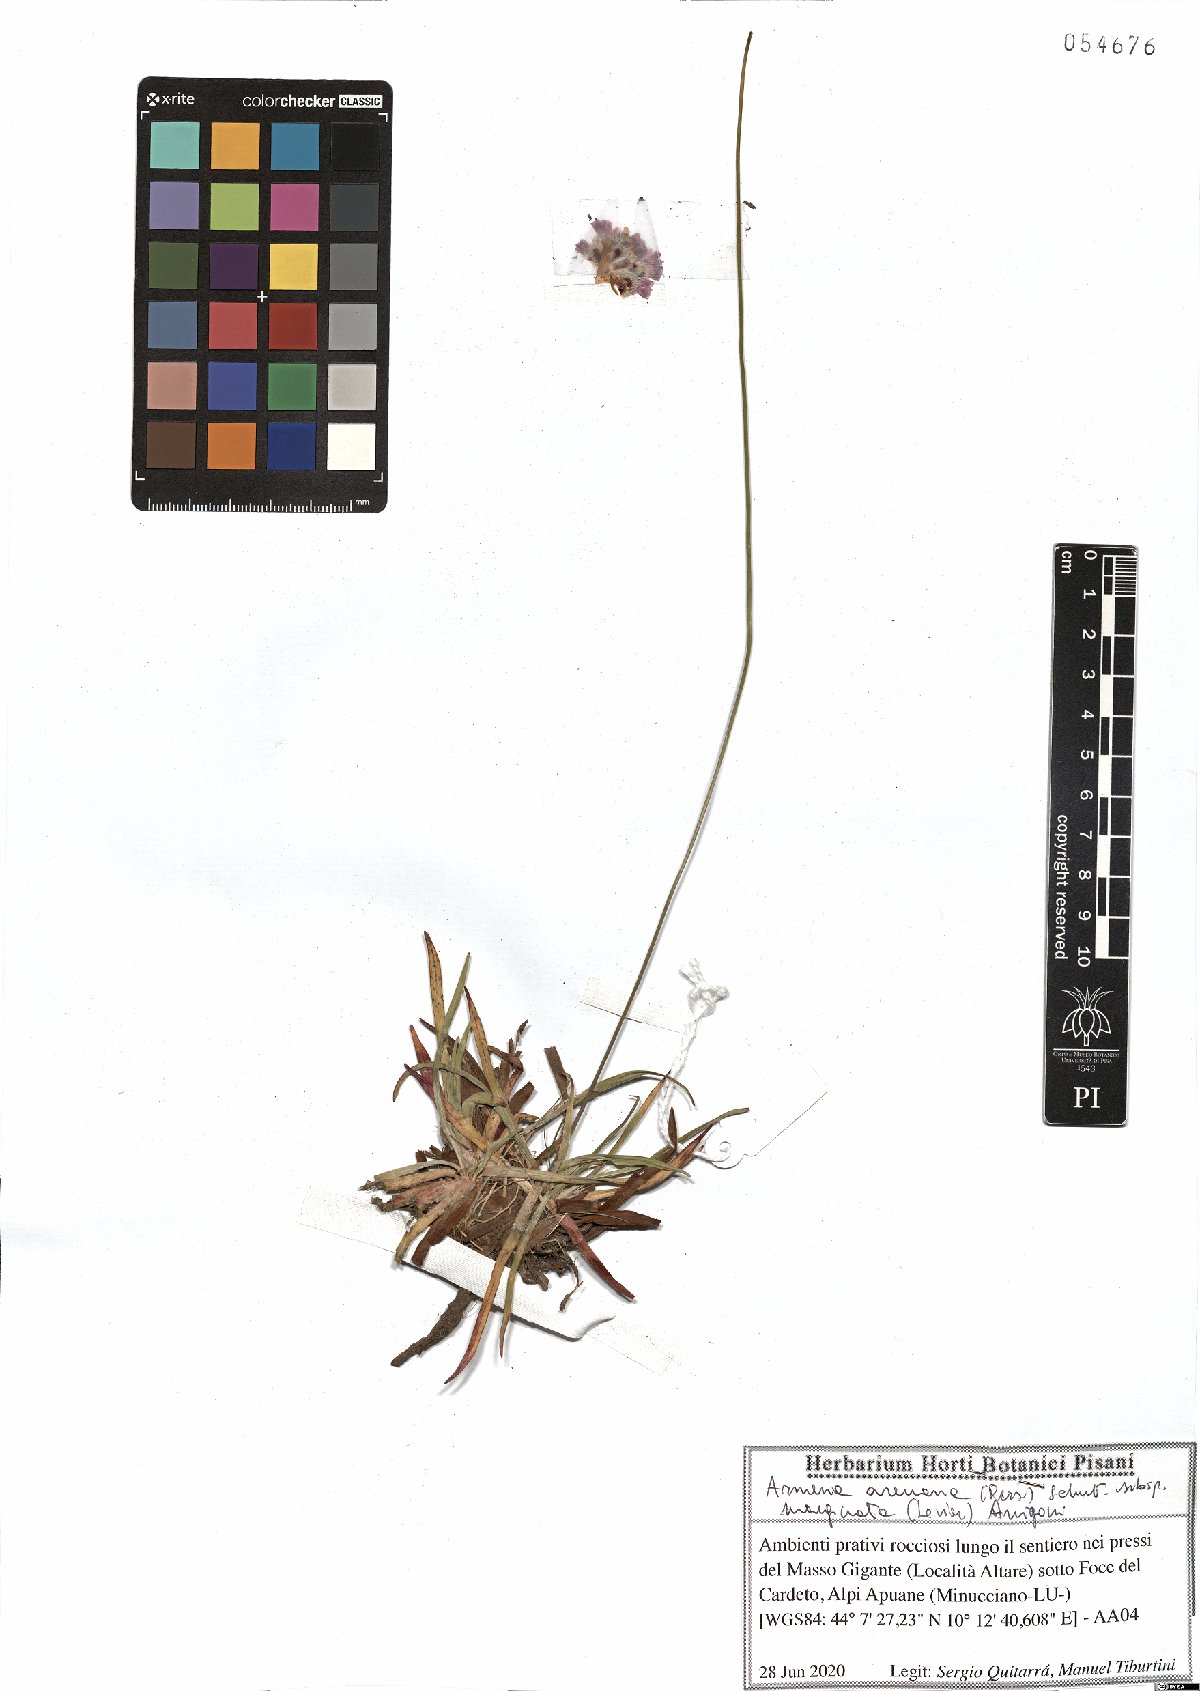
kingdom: Plantae
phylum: Tracheophyta
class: Magnoliopsida
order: Caryophyllales
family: Plumbaginaceae
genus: Armeria
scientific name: Armeria arenaria
